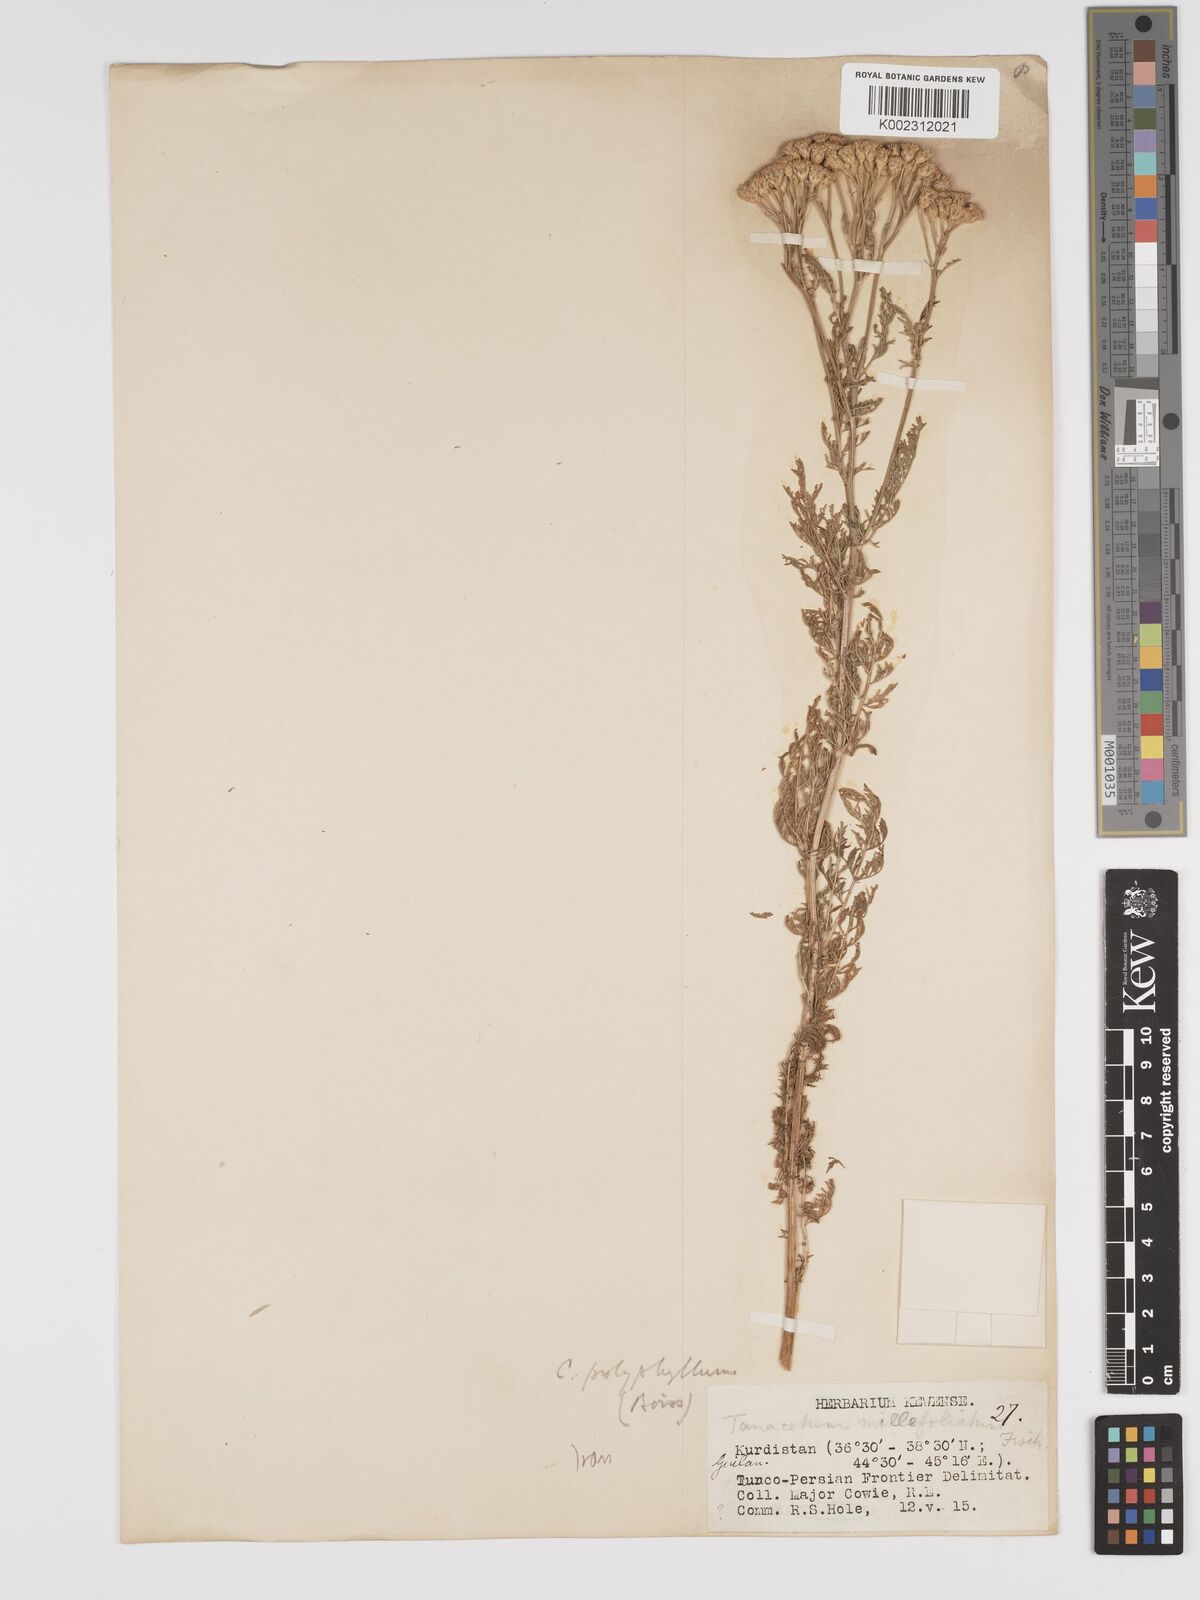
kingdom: Plantae
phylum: Tracheophyta
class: Magnoliopsida
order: Asterales
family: Asteraceae
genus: Tanacetum
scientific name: Tanacetum abrotanifolium
